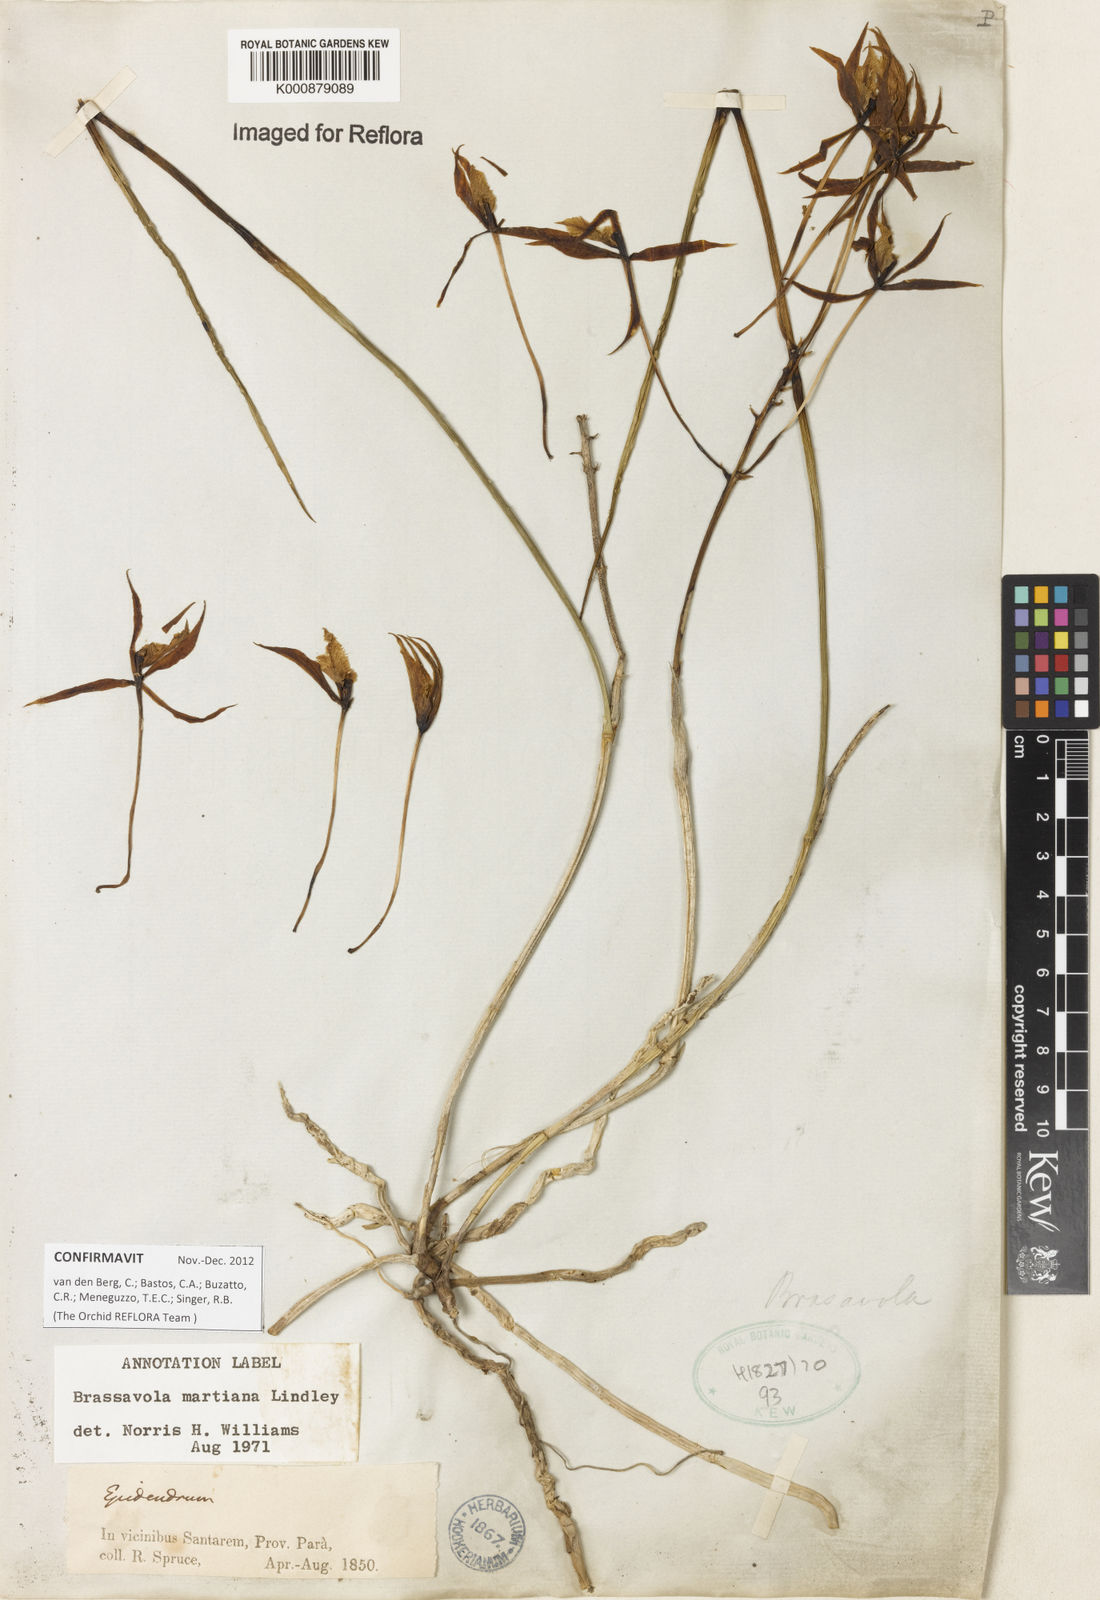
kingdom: Plantae
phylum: Tracheophyta
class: Liliopsida
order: Asparagales
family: Orchidaceae
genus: Brassavola
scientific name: Brassavola martiana
